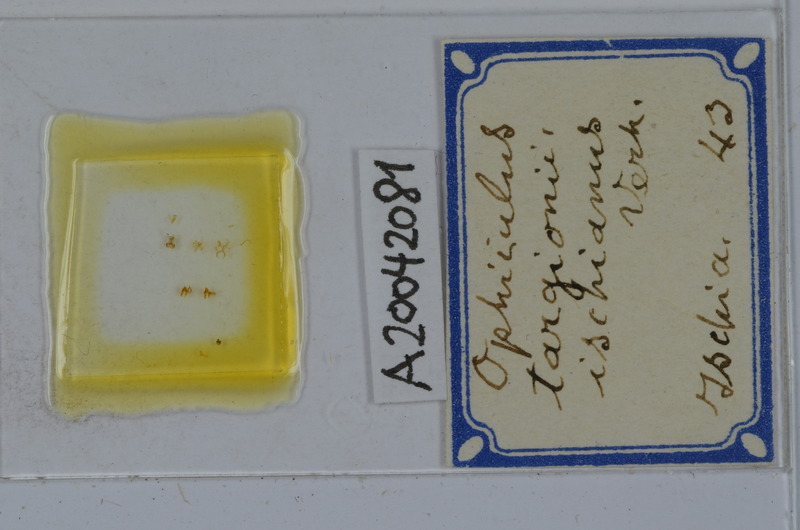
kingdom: Animalia
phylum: Arthropoda
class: Diplopoda
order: Julida
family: Julidae
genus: Ophyiulus
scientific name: Ophyiulus targionii
